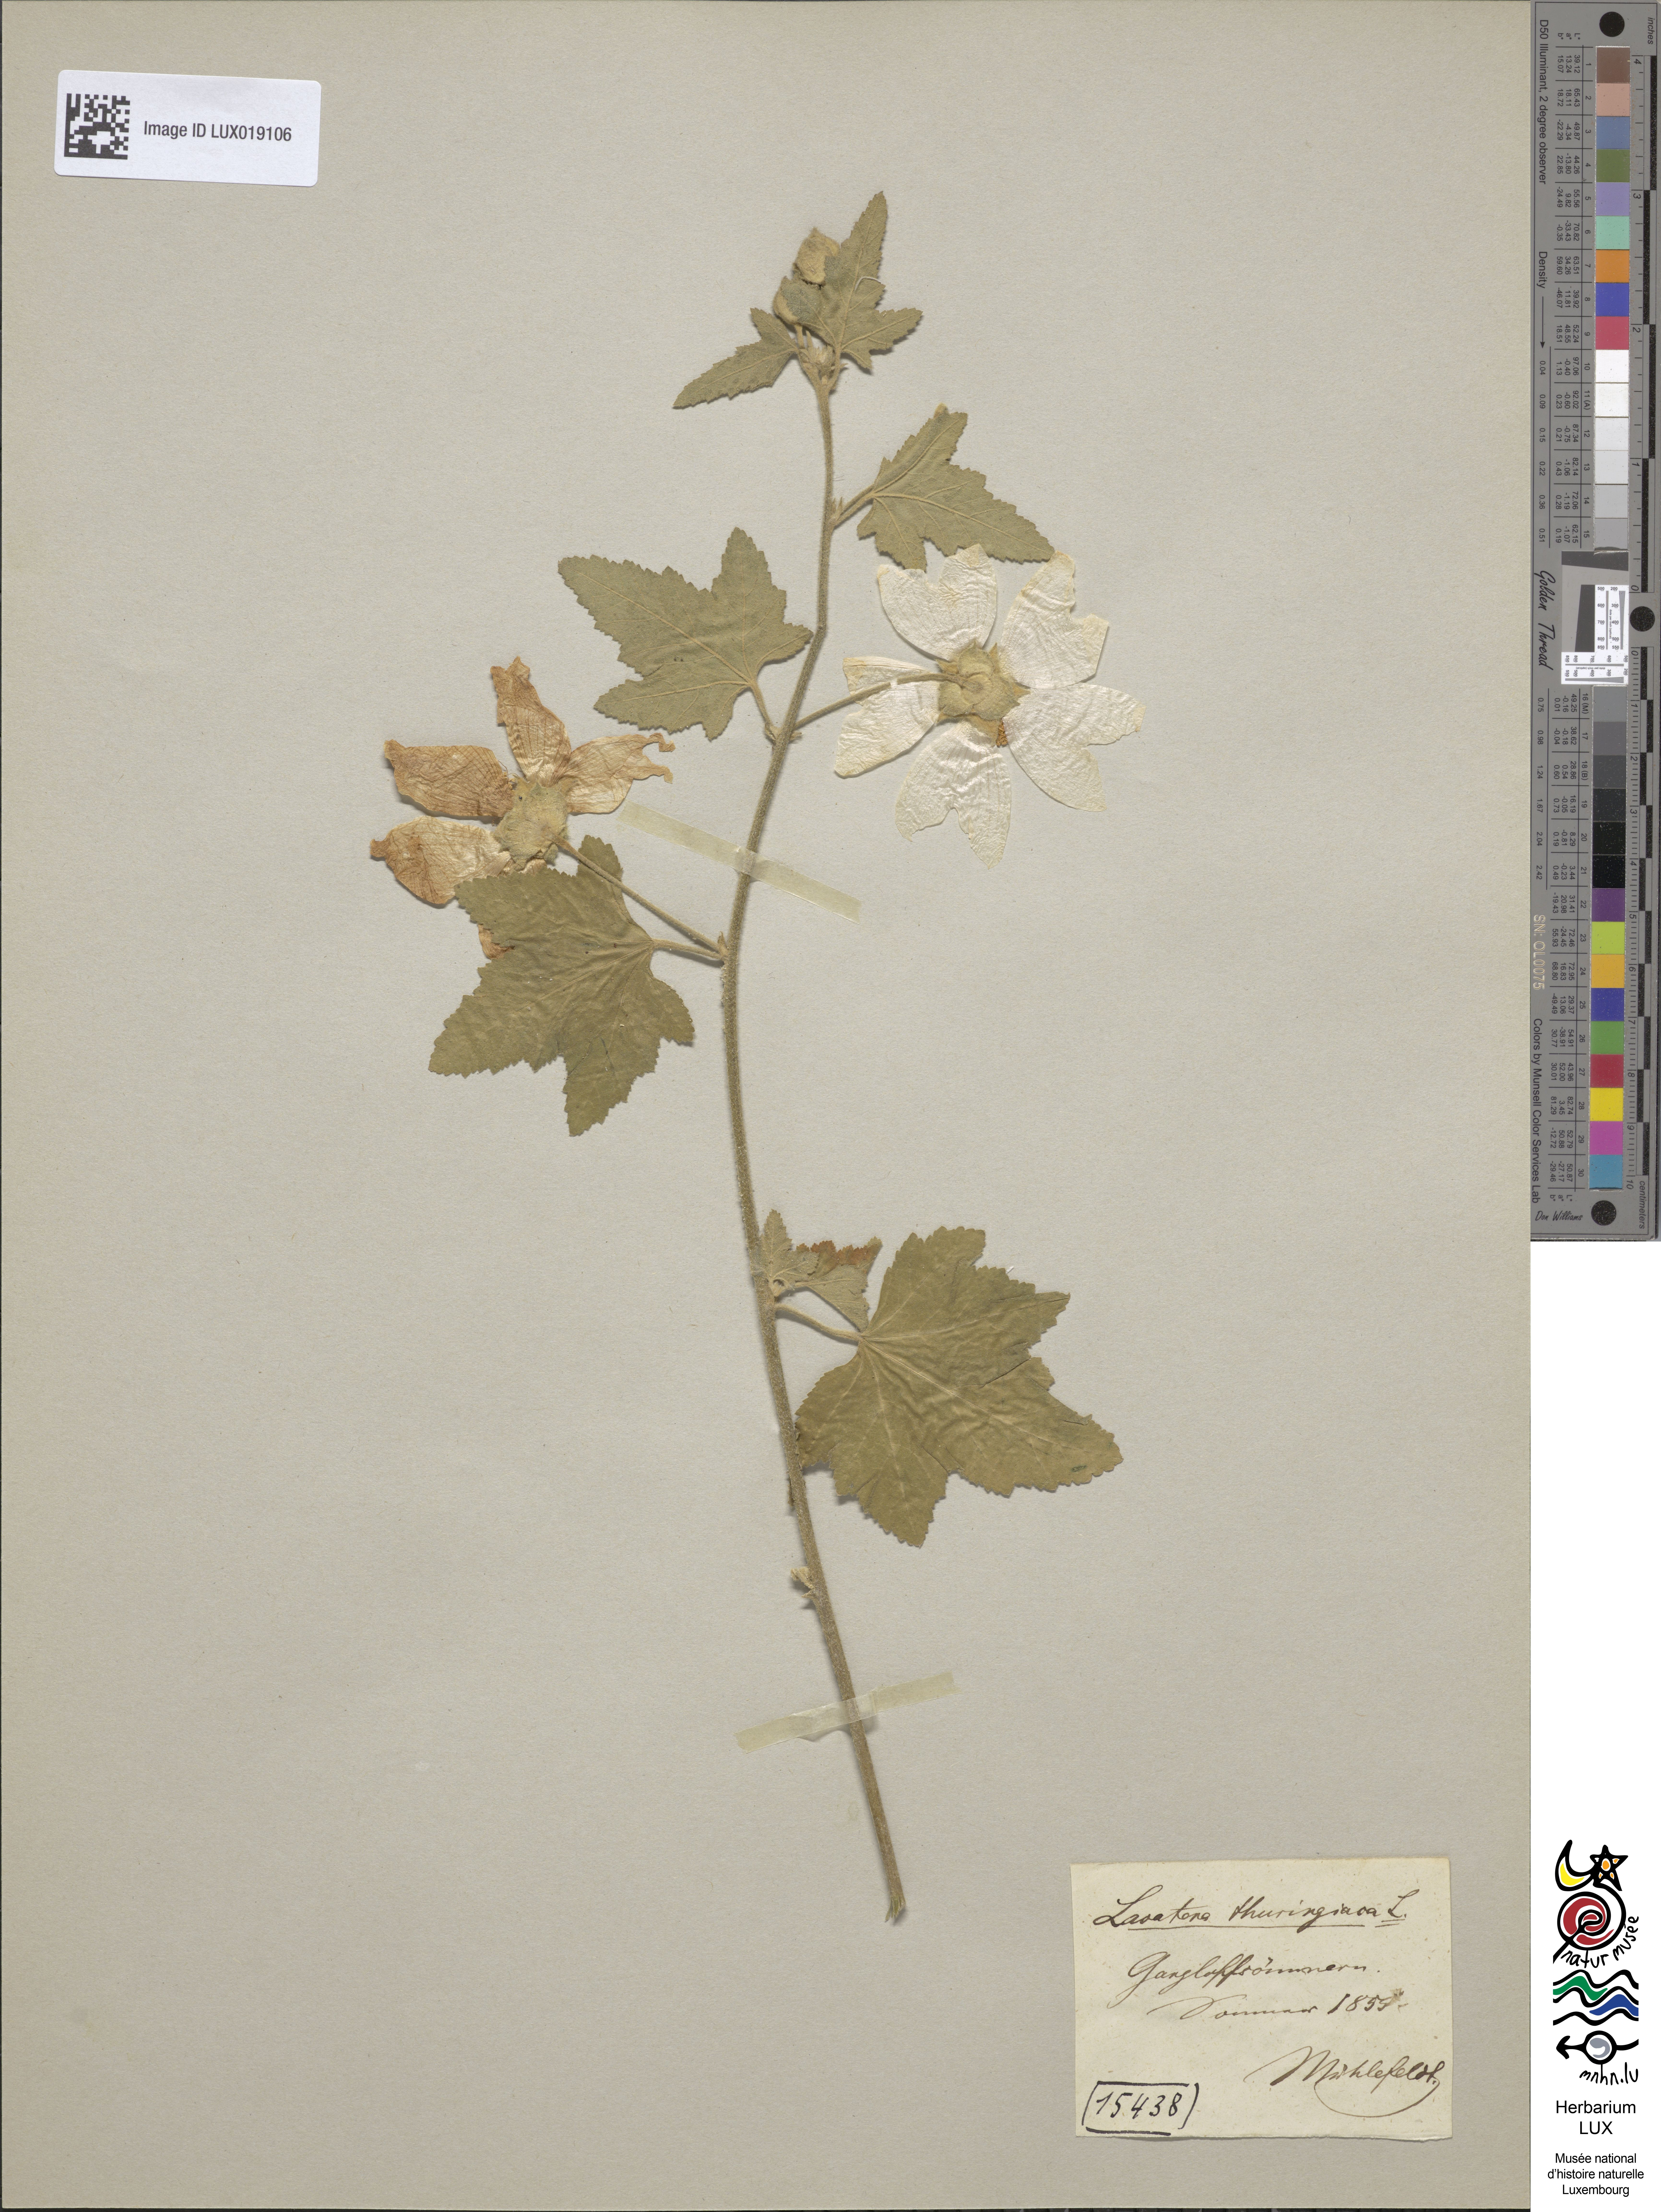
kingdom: Plantae
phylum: Tracheophyta
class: Magnoliopsida
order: Malvales
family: Malvaceae
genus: Malva
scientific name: Malva thuringiaca
